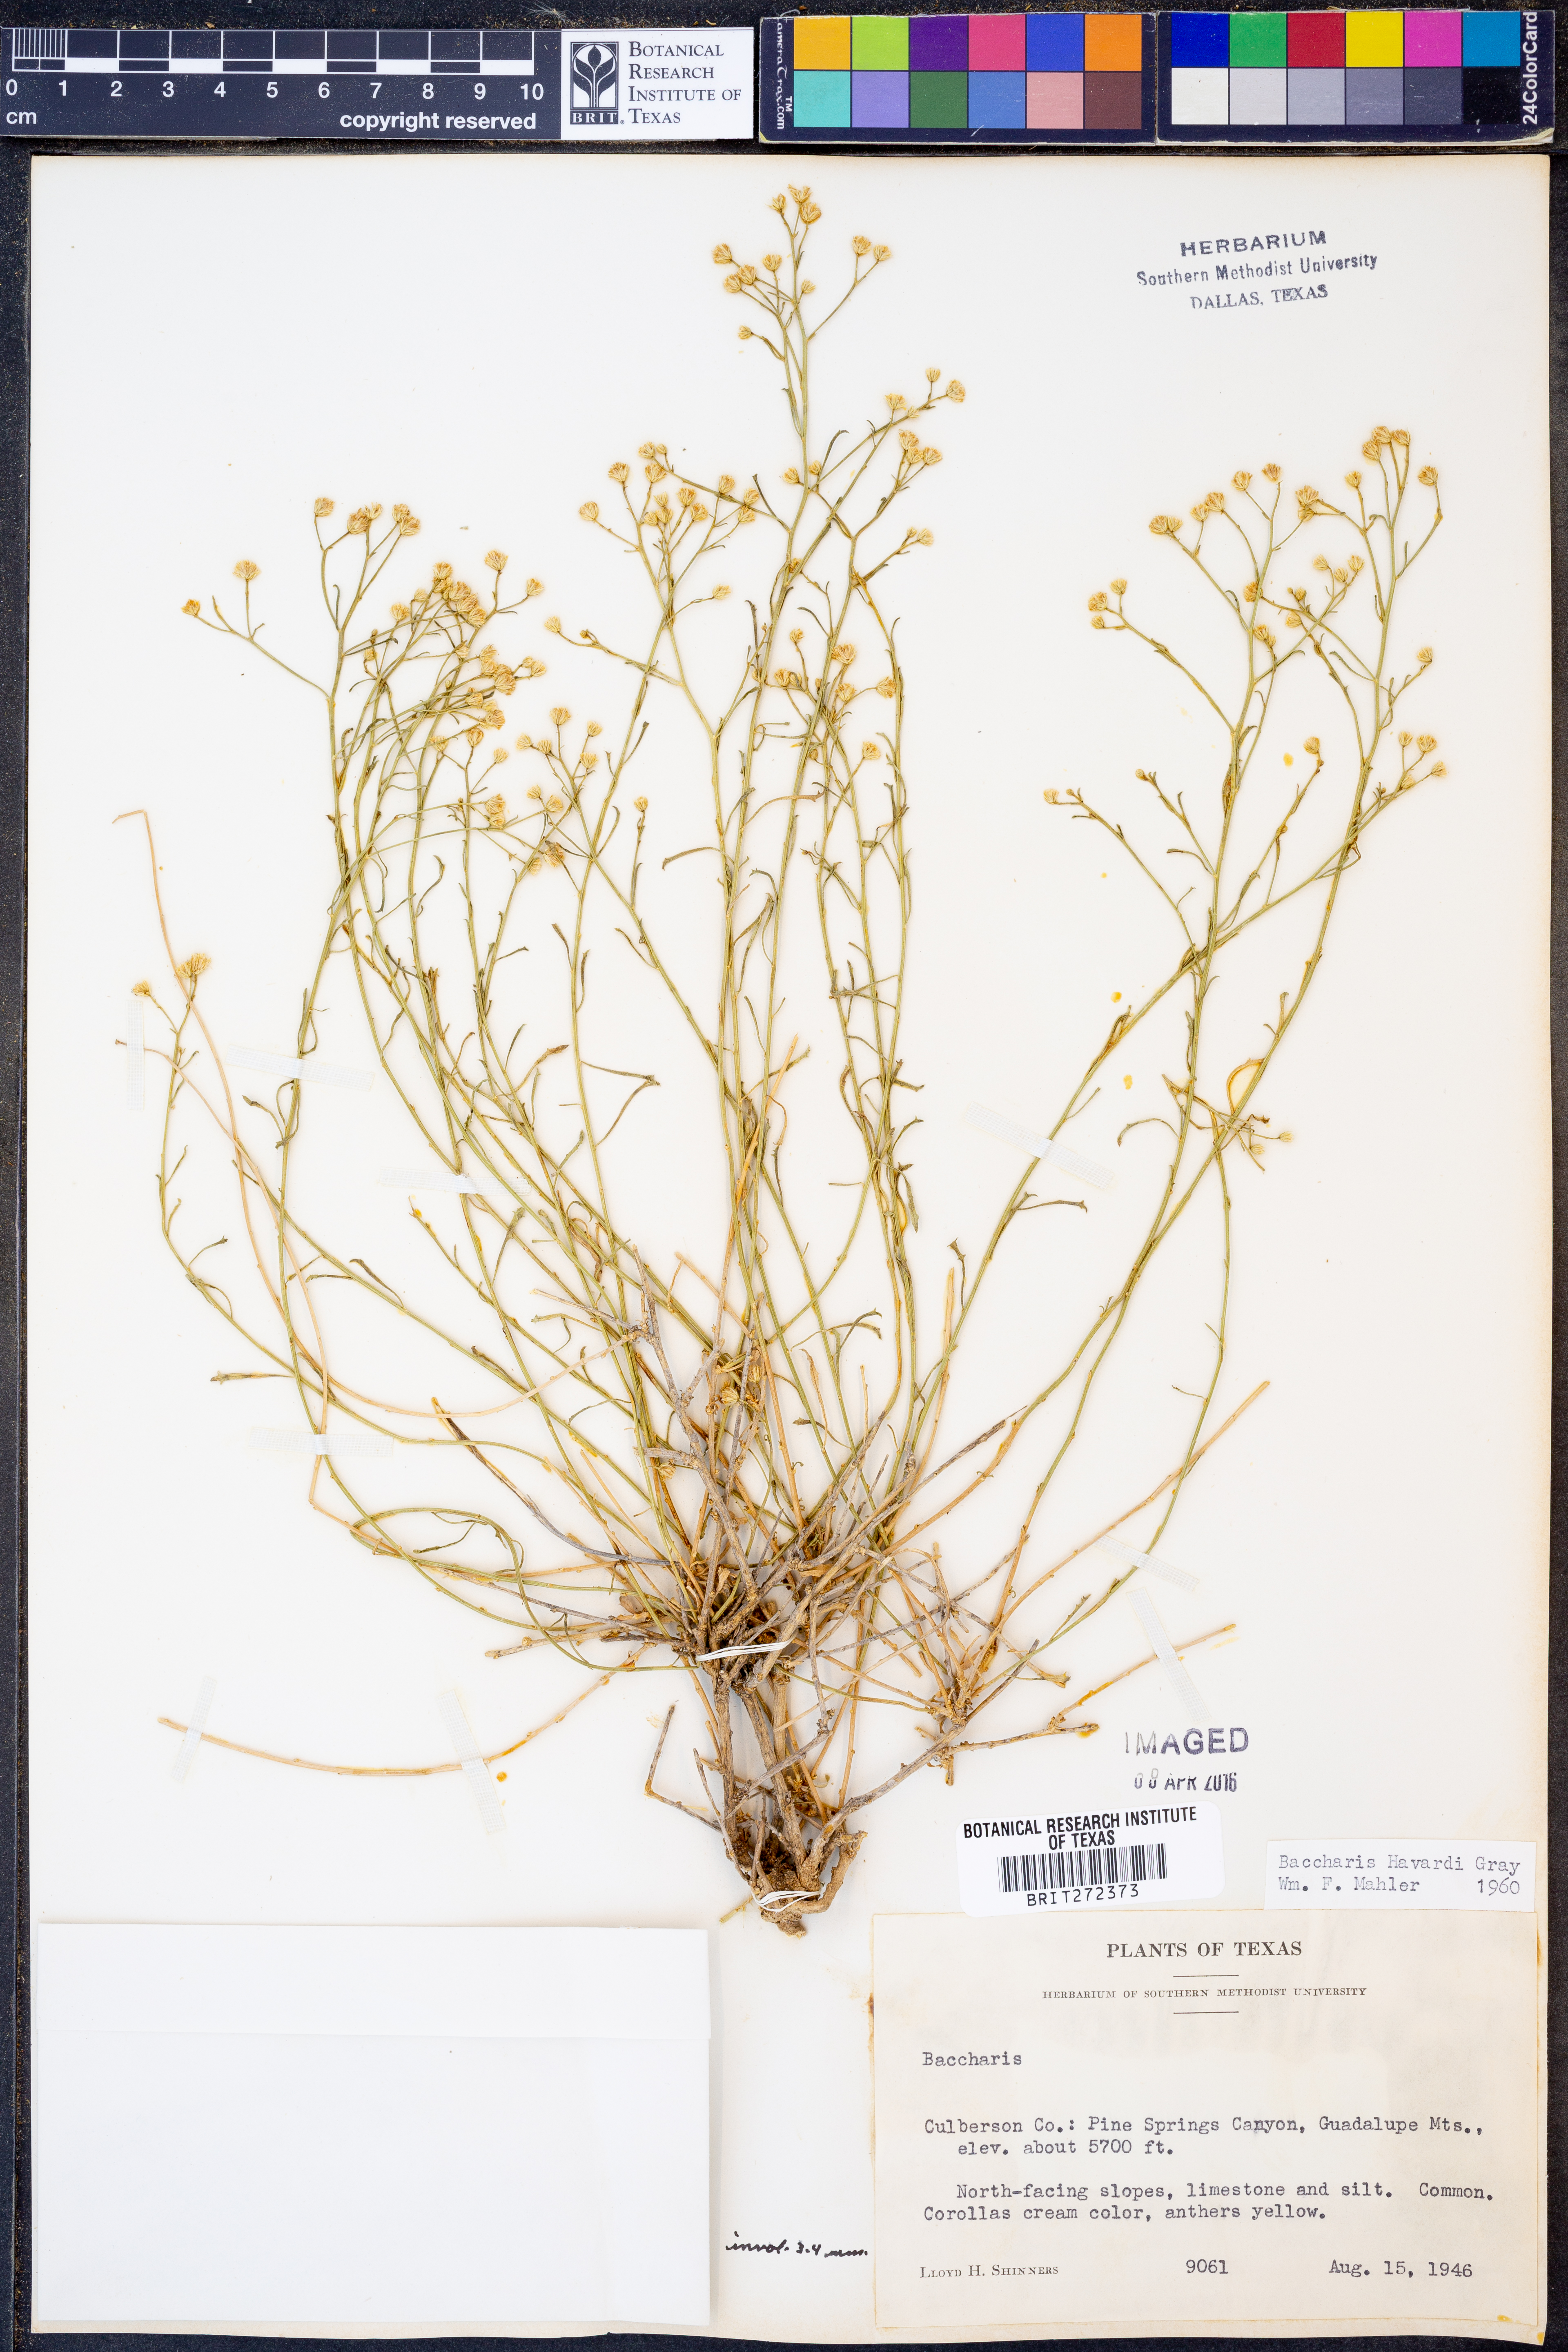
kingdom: Plantae
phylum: Tracheophyta
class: Magnoliopsida
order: Asterales
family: Asteraceae
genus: Baccharis
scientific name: Baccharis havardii
